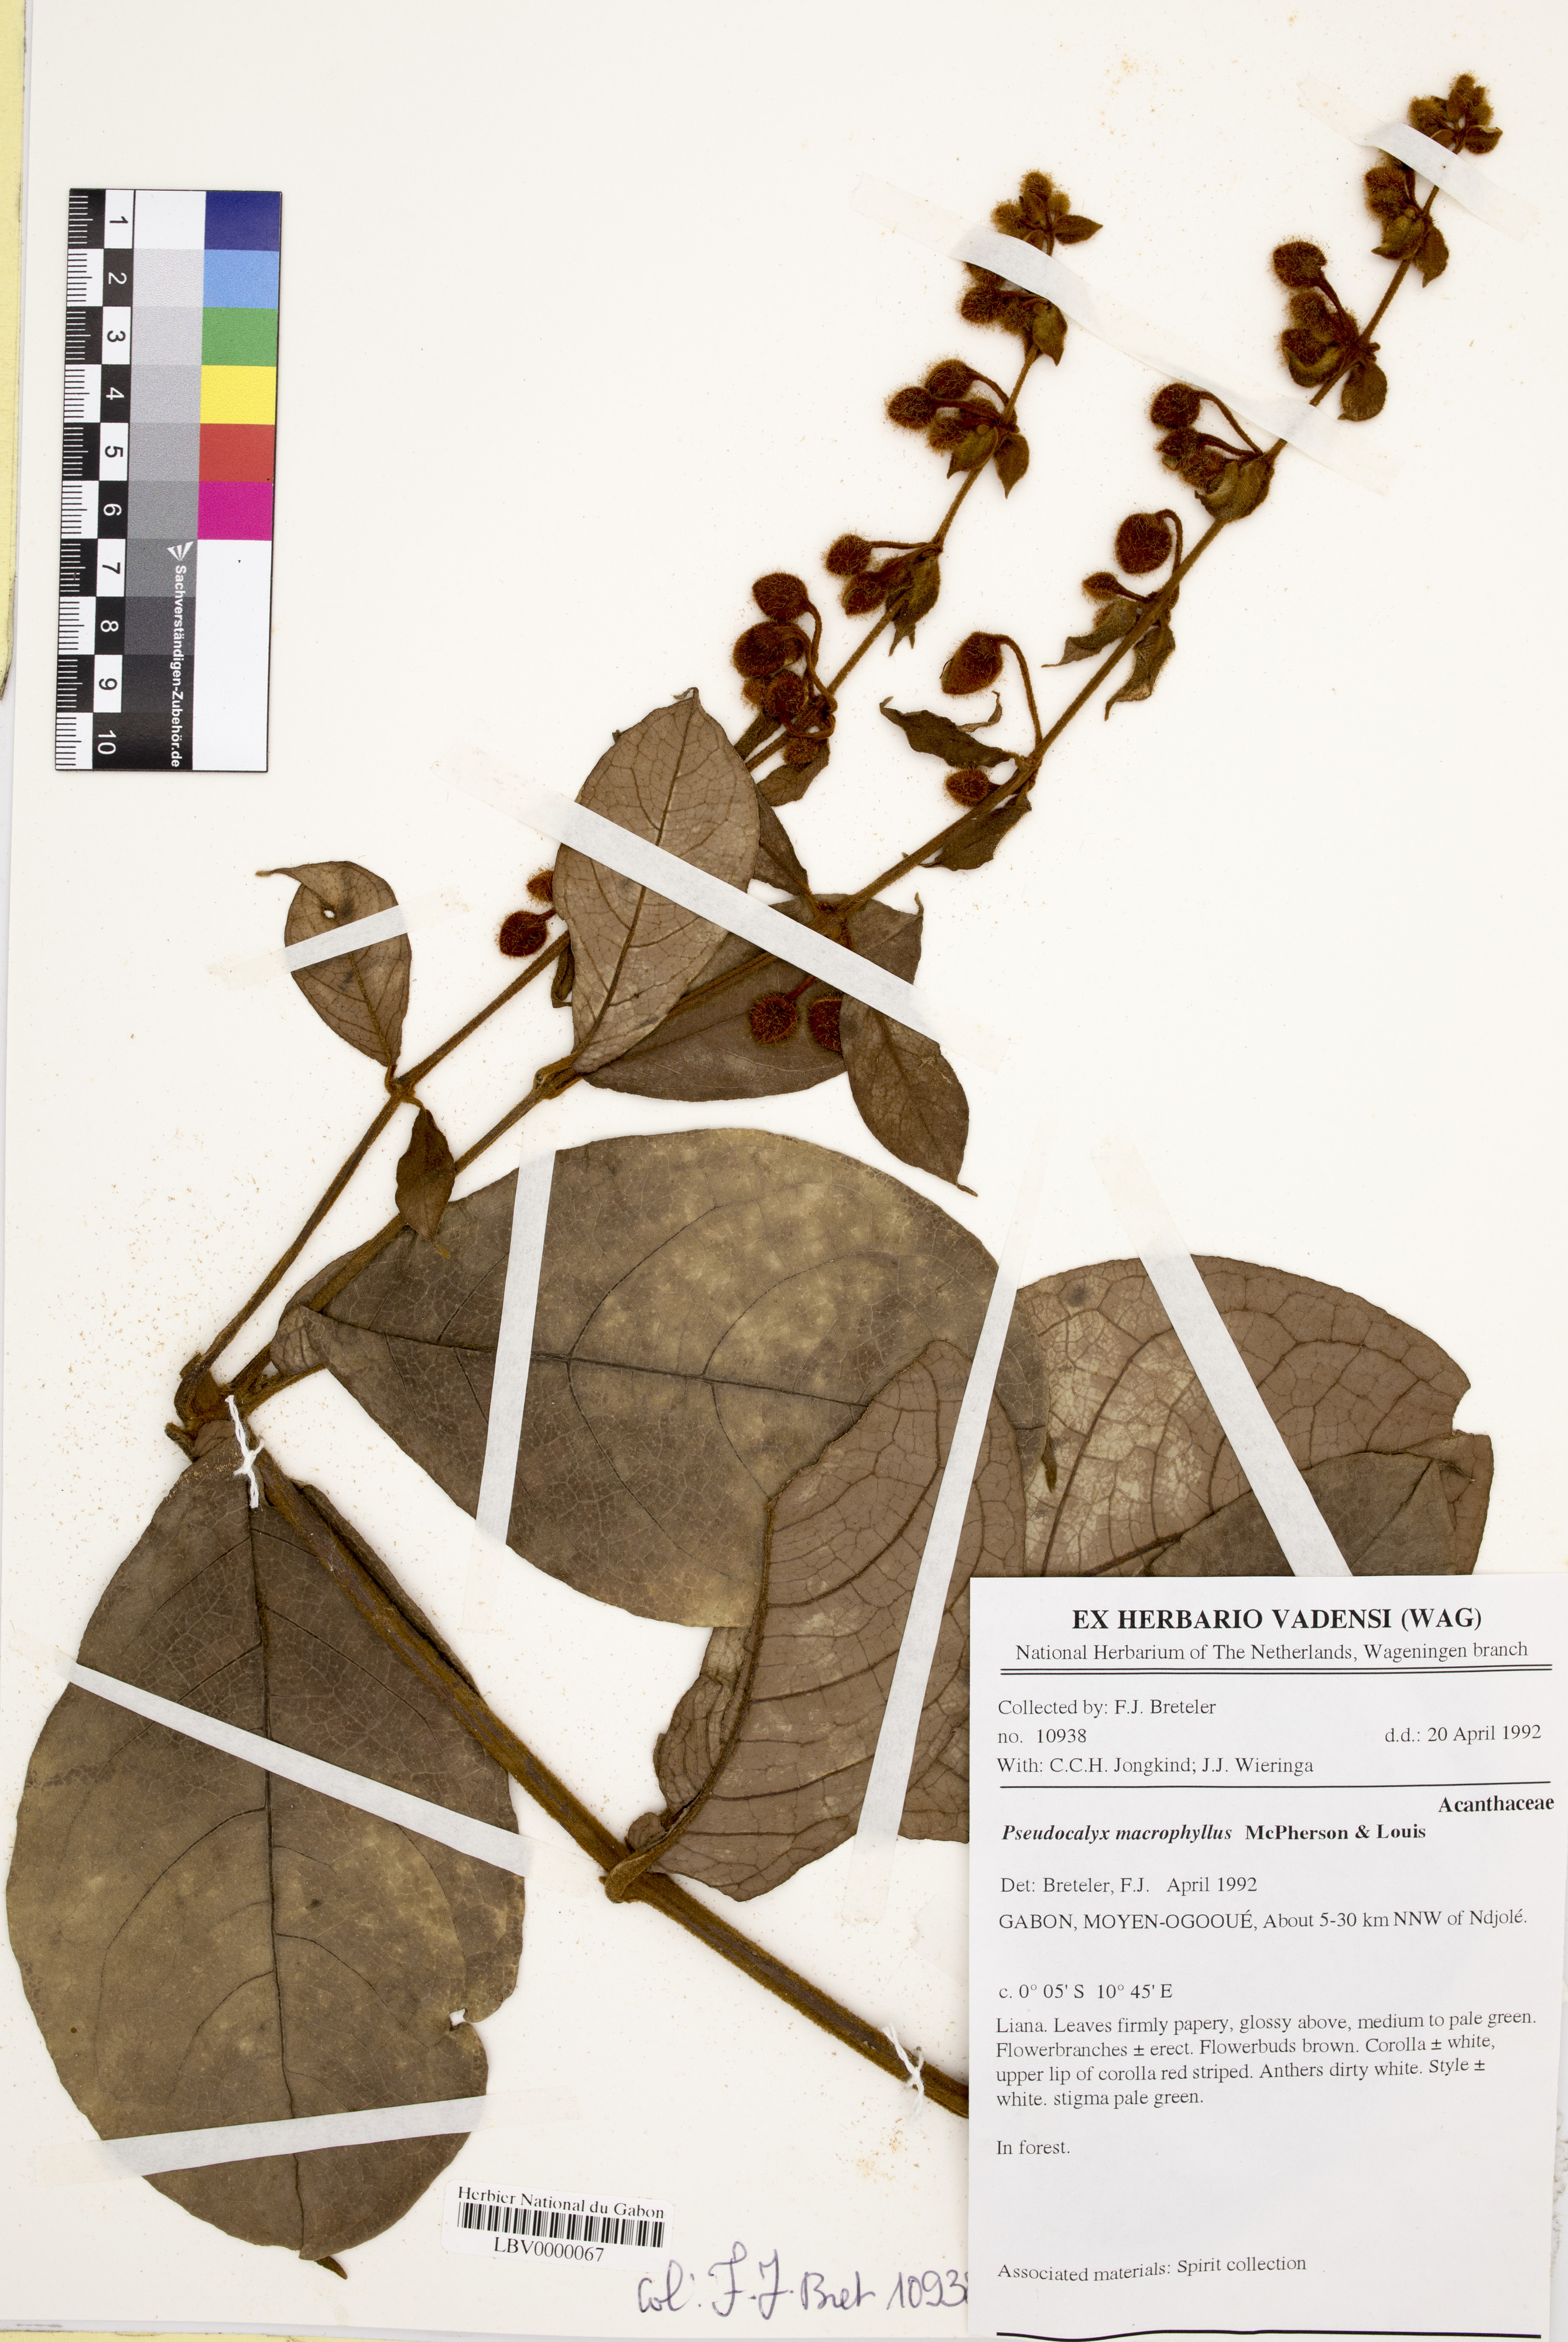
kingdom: Plantae
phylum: Tracheophyta
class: Magnoliopsida
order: Lamiales
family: Acanthaceae
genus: Pseudocalyx
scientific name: Pseudocalyx macrophyllus
